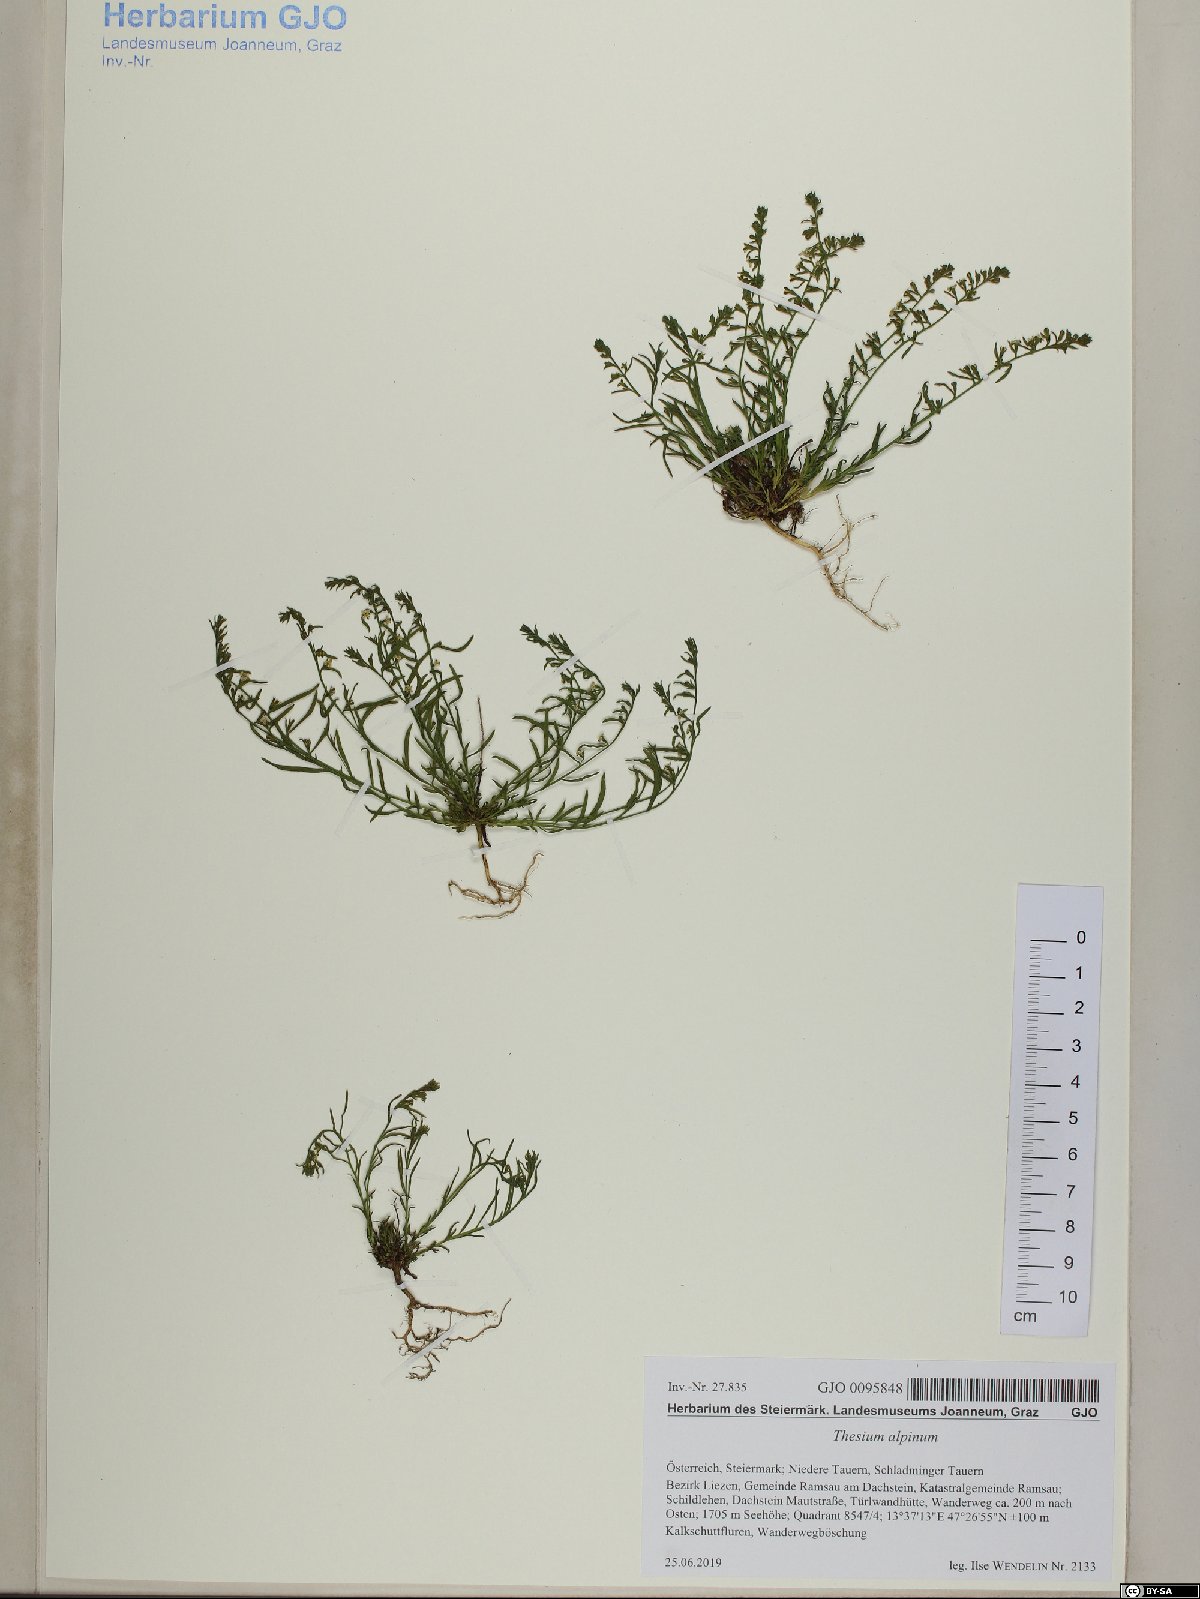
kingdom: Plantae
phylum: Tracheophyta
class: Magnoliopsida
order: Santalales
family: Thesiaceae
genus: Thesium
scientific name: Thesium alpinum
